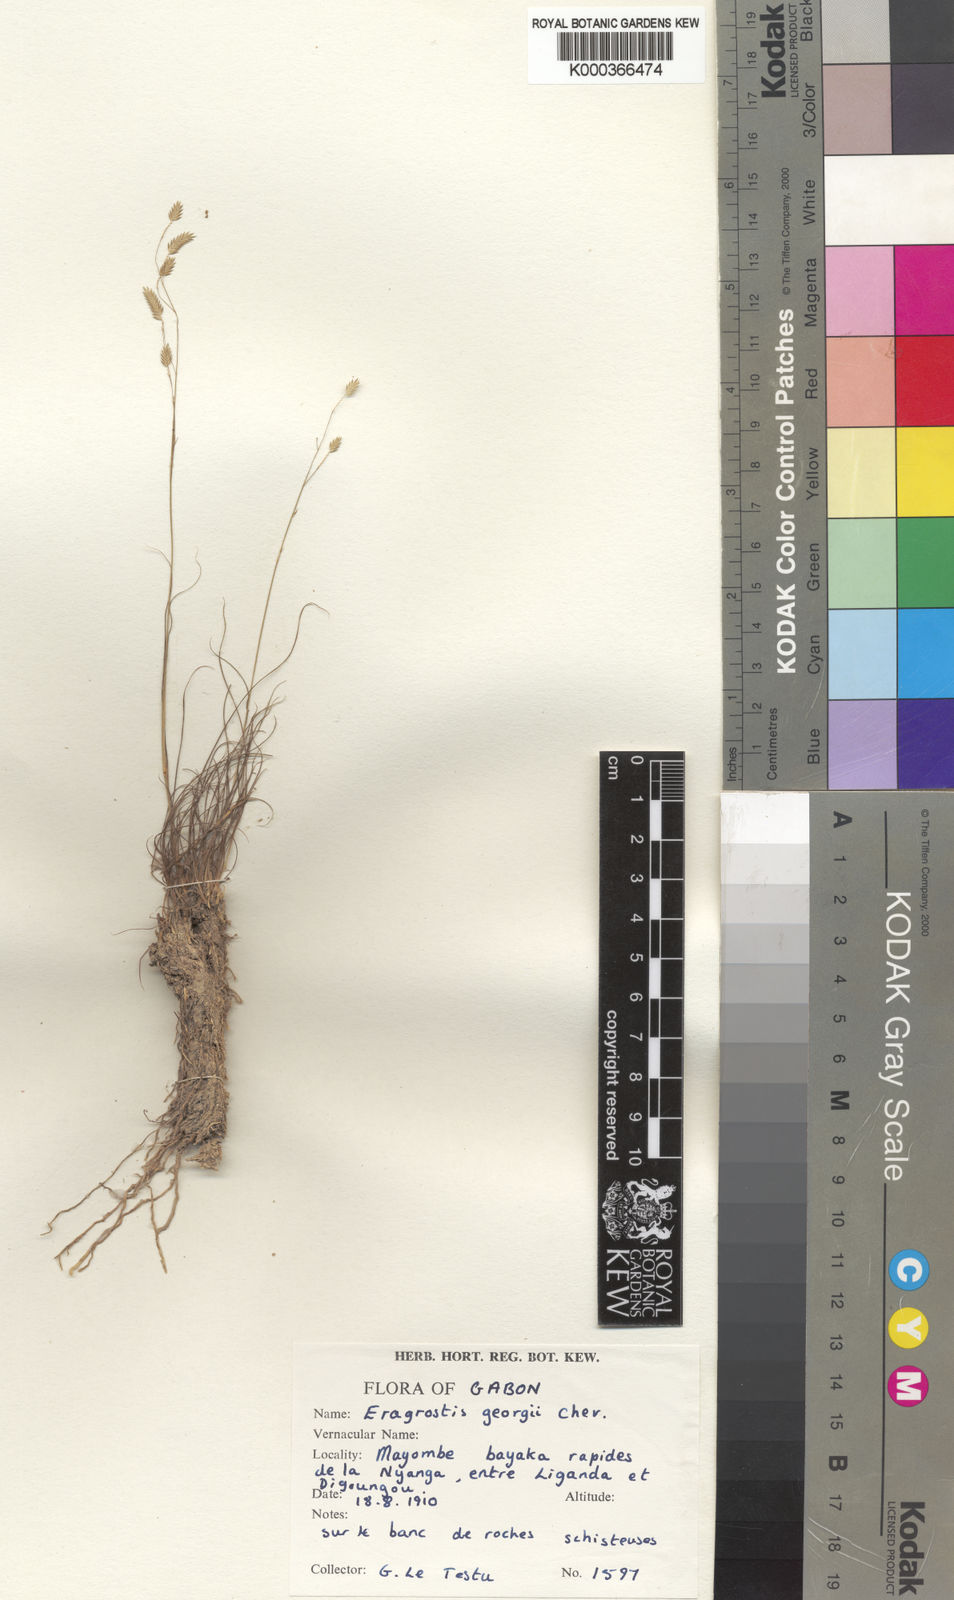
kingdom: Plantae
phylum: Tracheophyta
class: Liliopsida
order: Poales
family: Poaceae
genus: Eragrostis
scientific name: Eragrostis georgii
